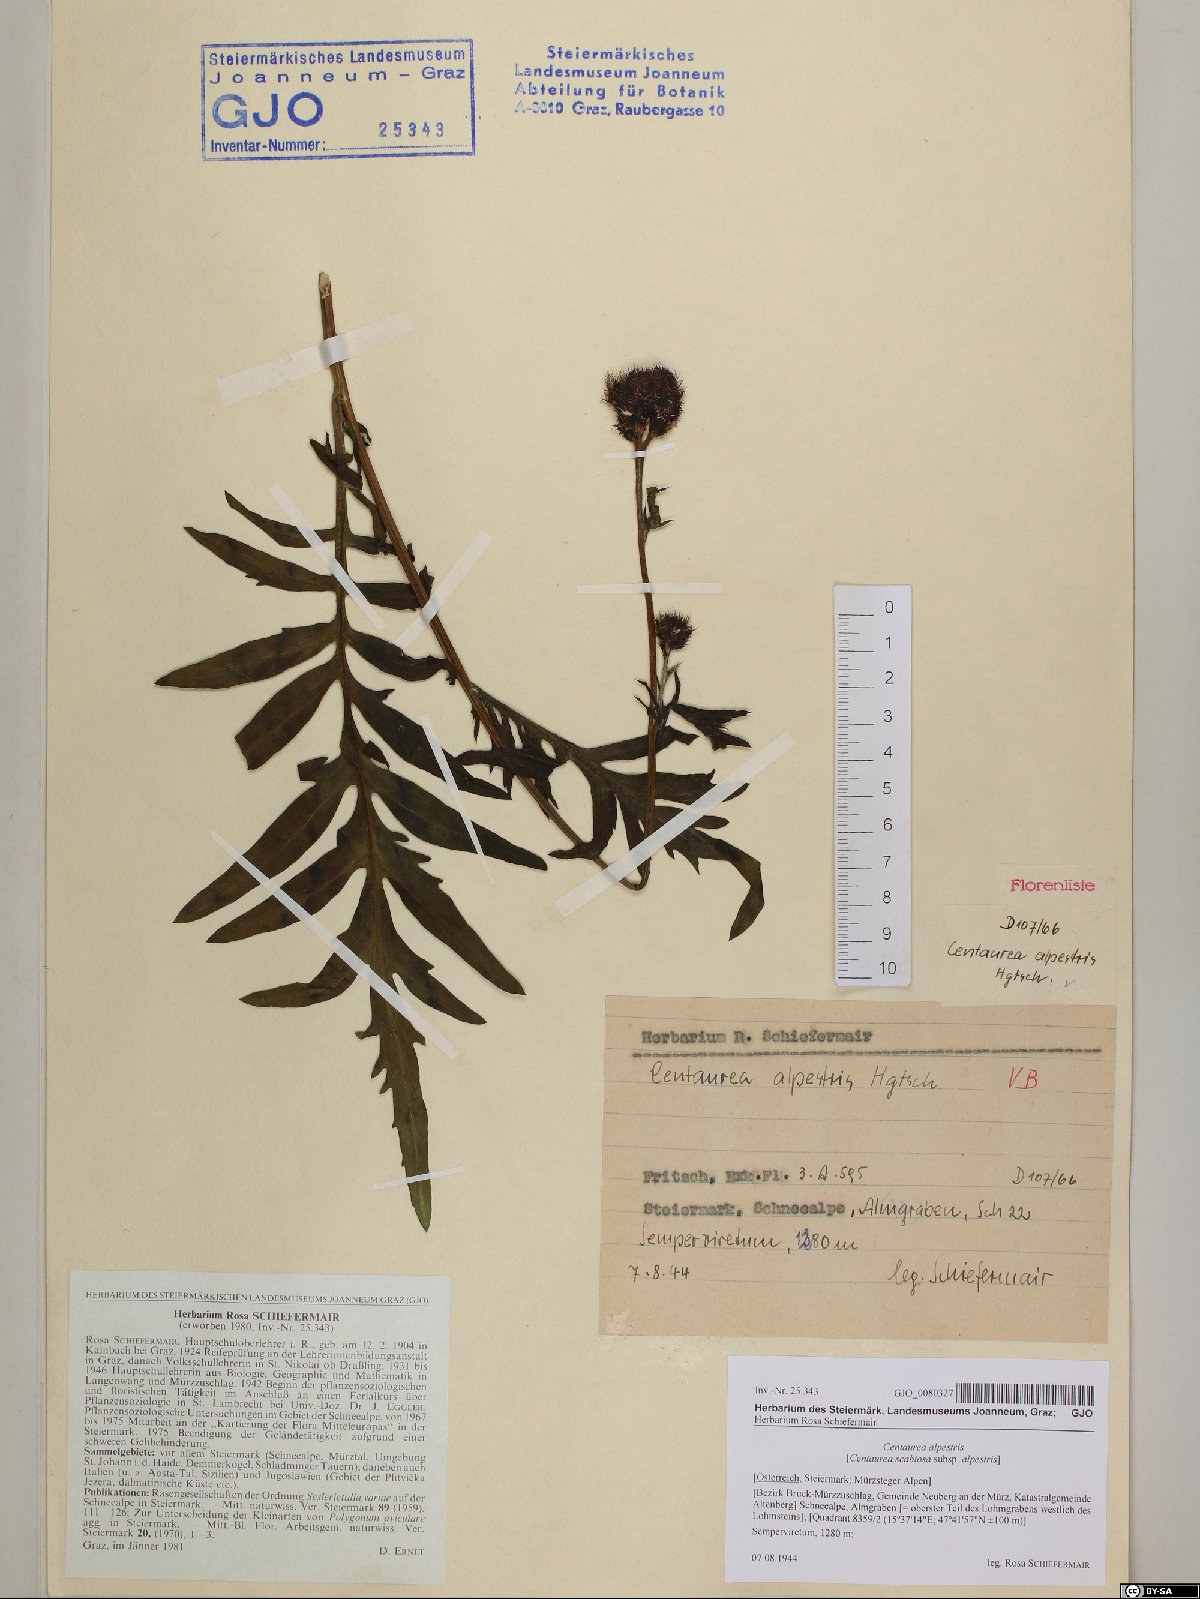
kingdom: Plantae
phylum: Tracheophyta
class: Magnoliopsida
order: Asterales
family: Asteraceae
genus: Centaurea
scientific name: Centaurea scabiosa
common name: Greater knapweed
